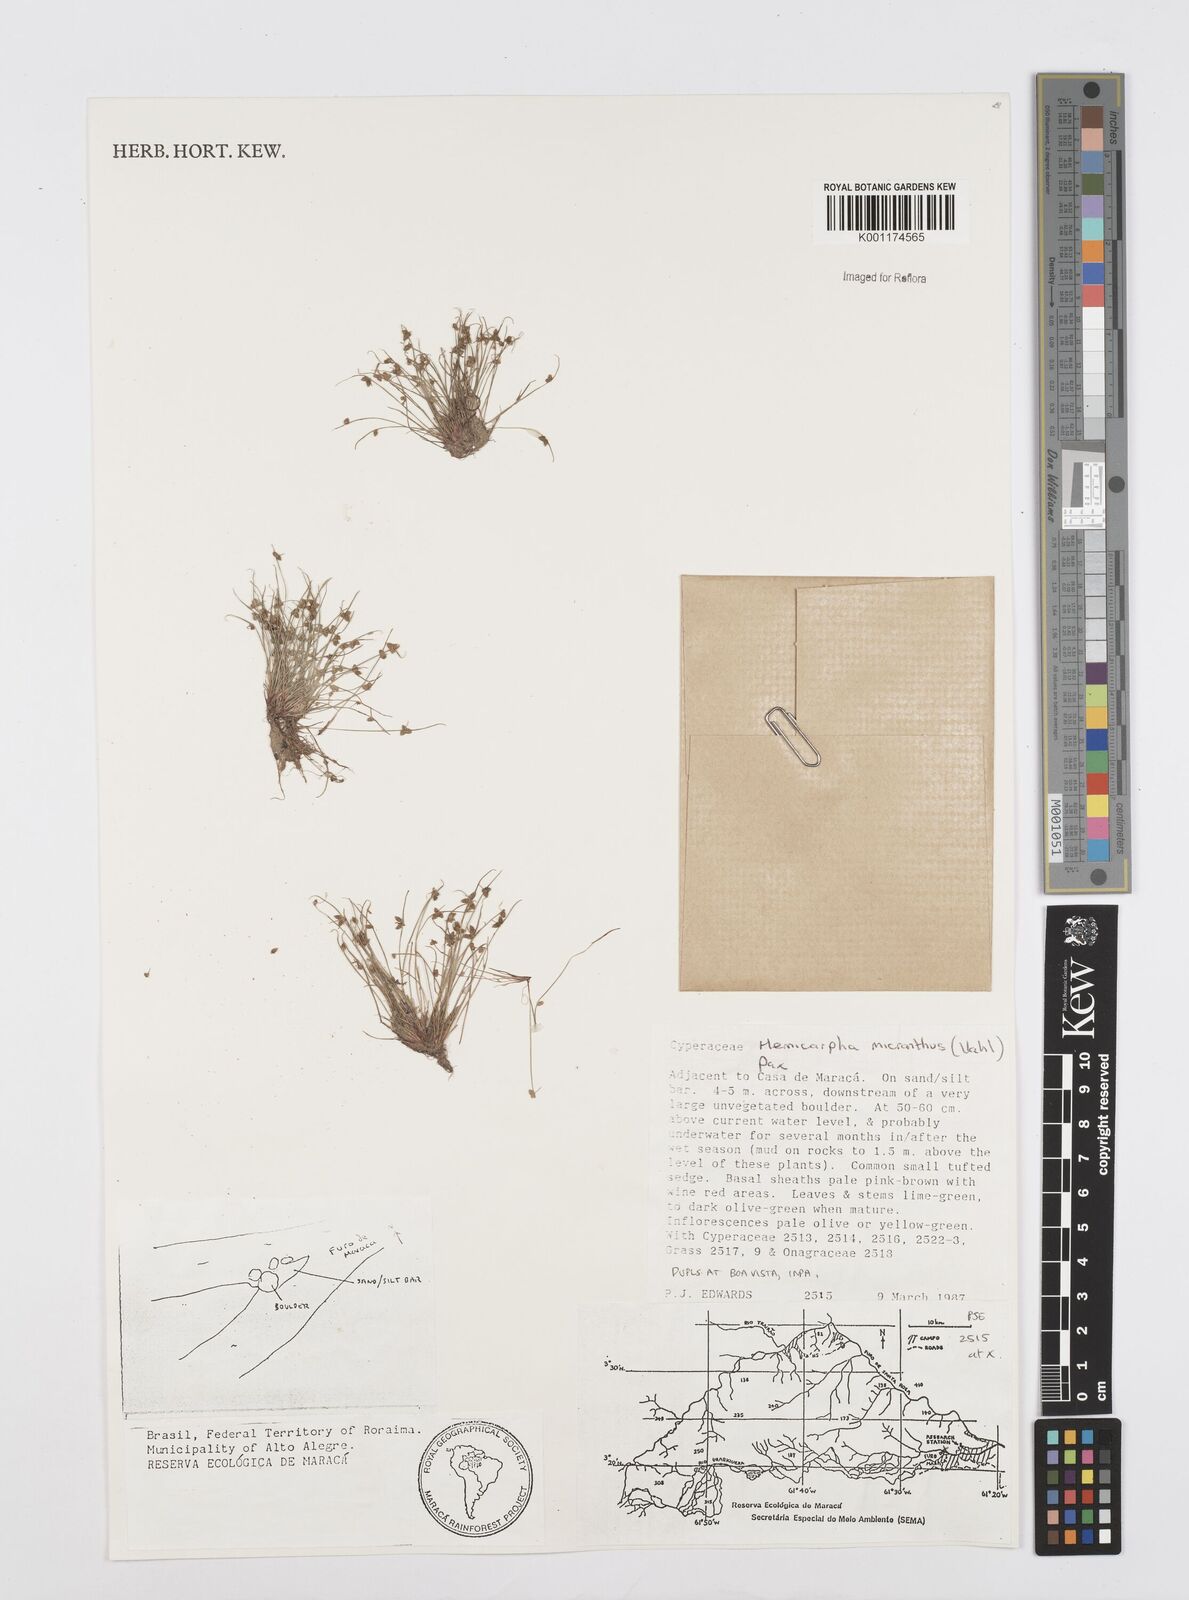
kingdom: Plantae
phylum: Tracheophyta
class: Liliopsida
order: Poales
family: Cyperaceae
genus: Cyperus
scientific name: Cyperus
